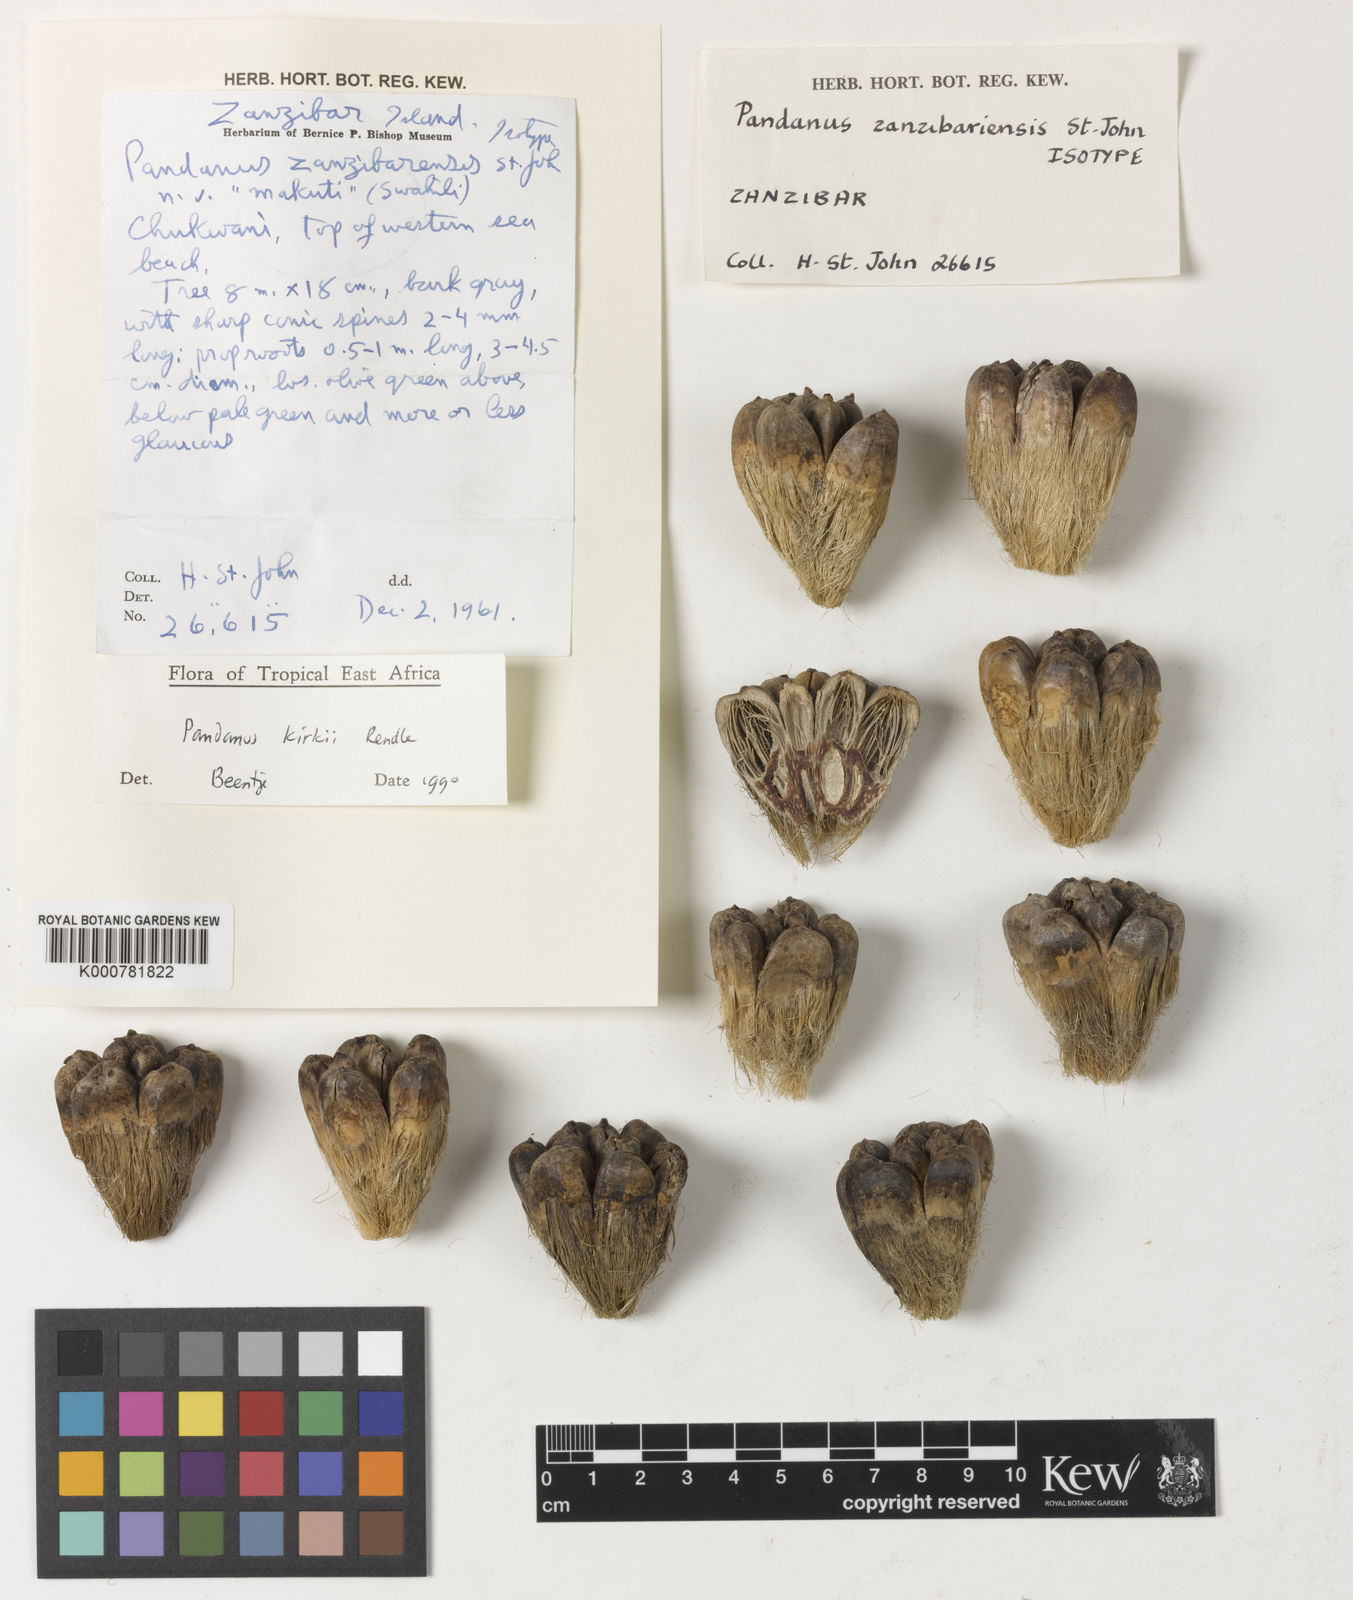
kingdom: Plantae
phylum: Tracheophyta
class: Liliopsida
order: Pandanales
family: Pandanaceae
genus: Pandanus
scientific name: Pandanus kirkii
